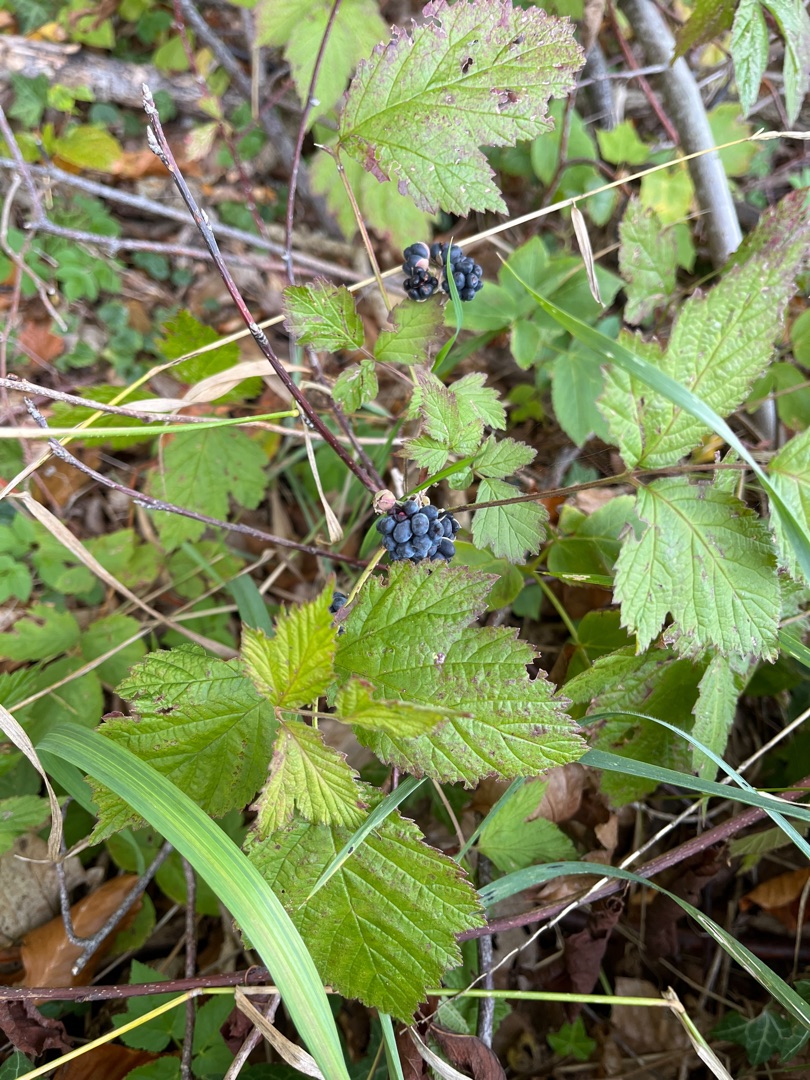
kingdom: Plantae
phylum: Tracheophyta
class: Magnoliopsida
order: Rosales
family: Rosaceae
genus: Rubus
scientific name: Rubus caesius
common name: Korbær
